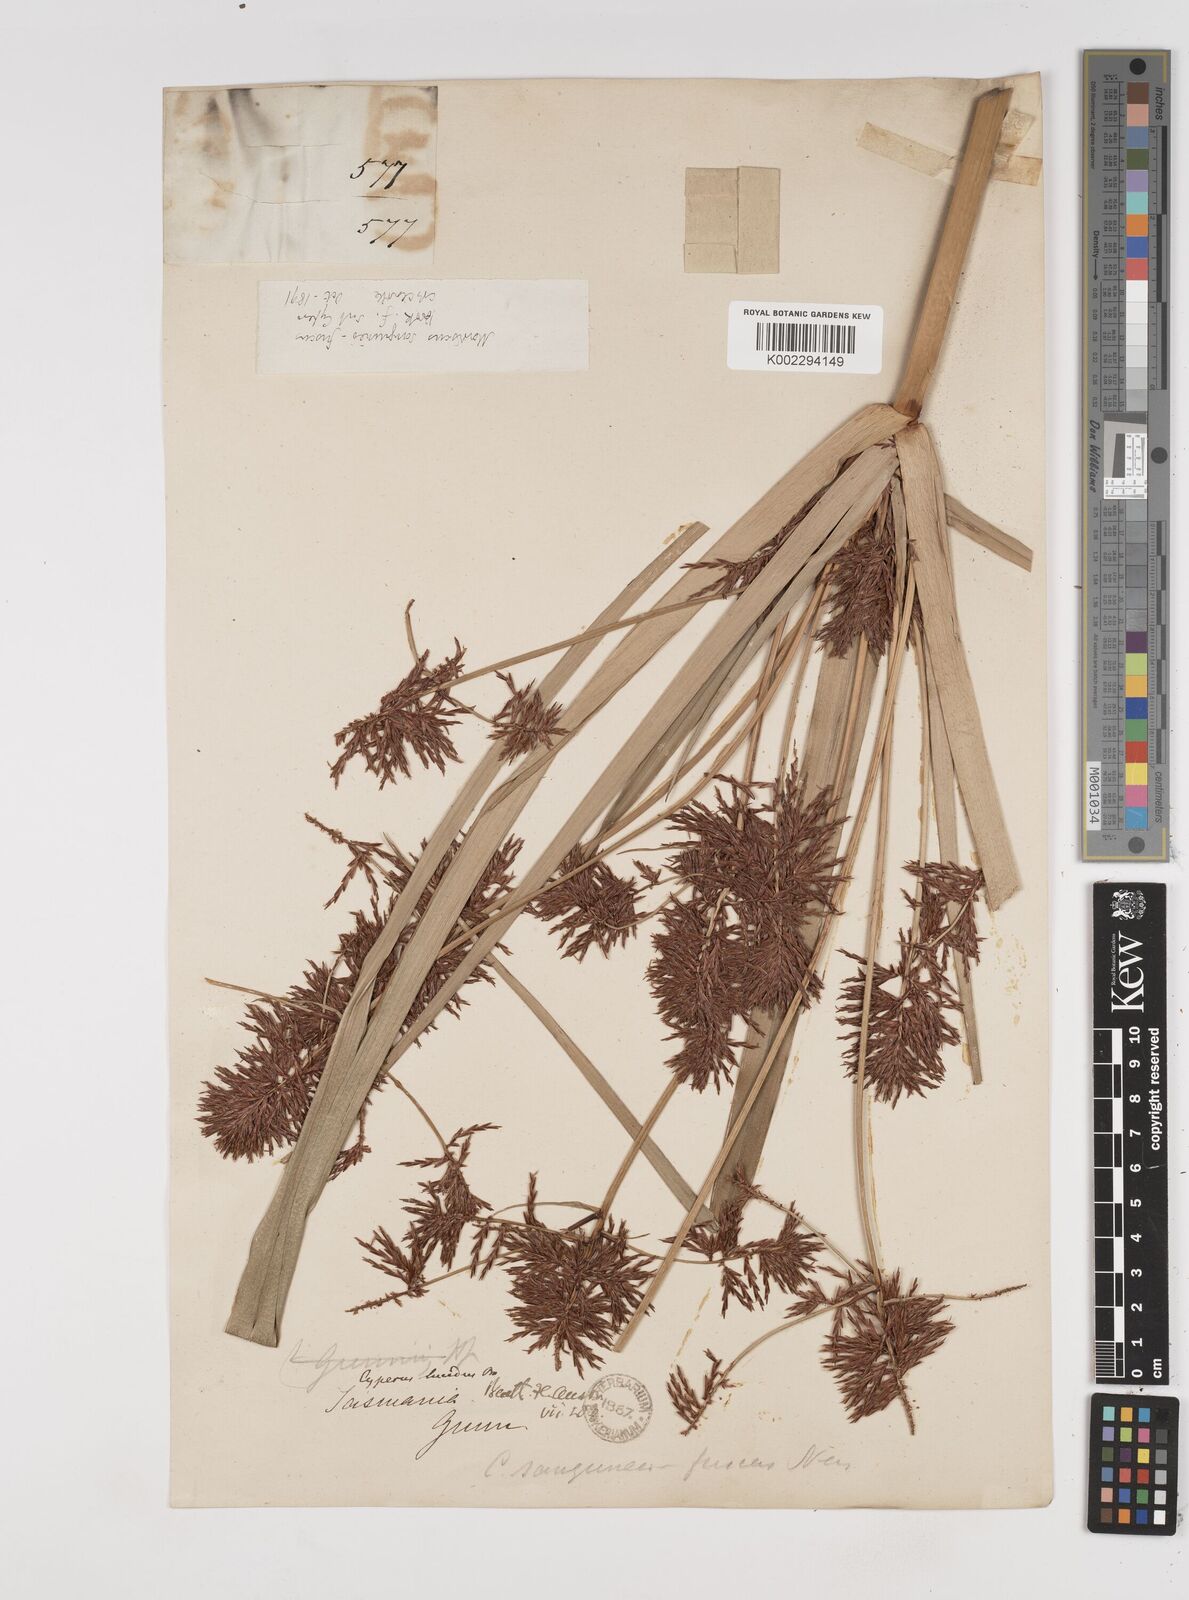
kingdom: Plantae
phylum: Tracheophyta
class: Liliopsida
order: Poales
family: Cyperaceae
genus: Cyperus
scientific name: Cyperus lucidus
